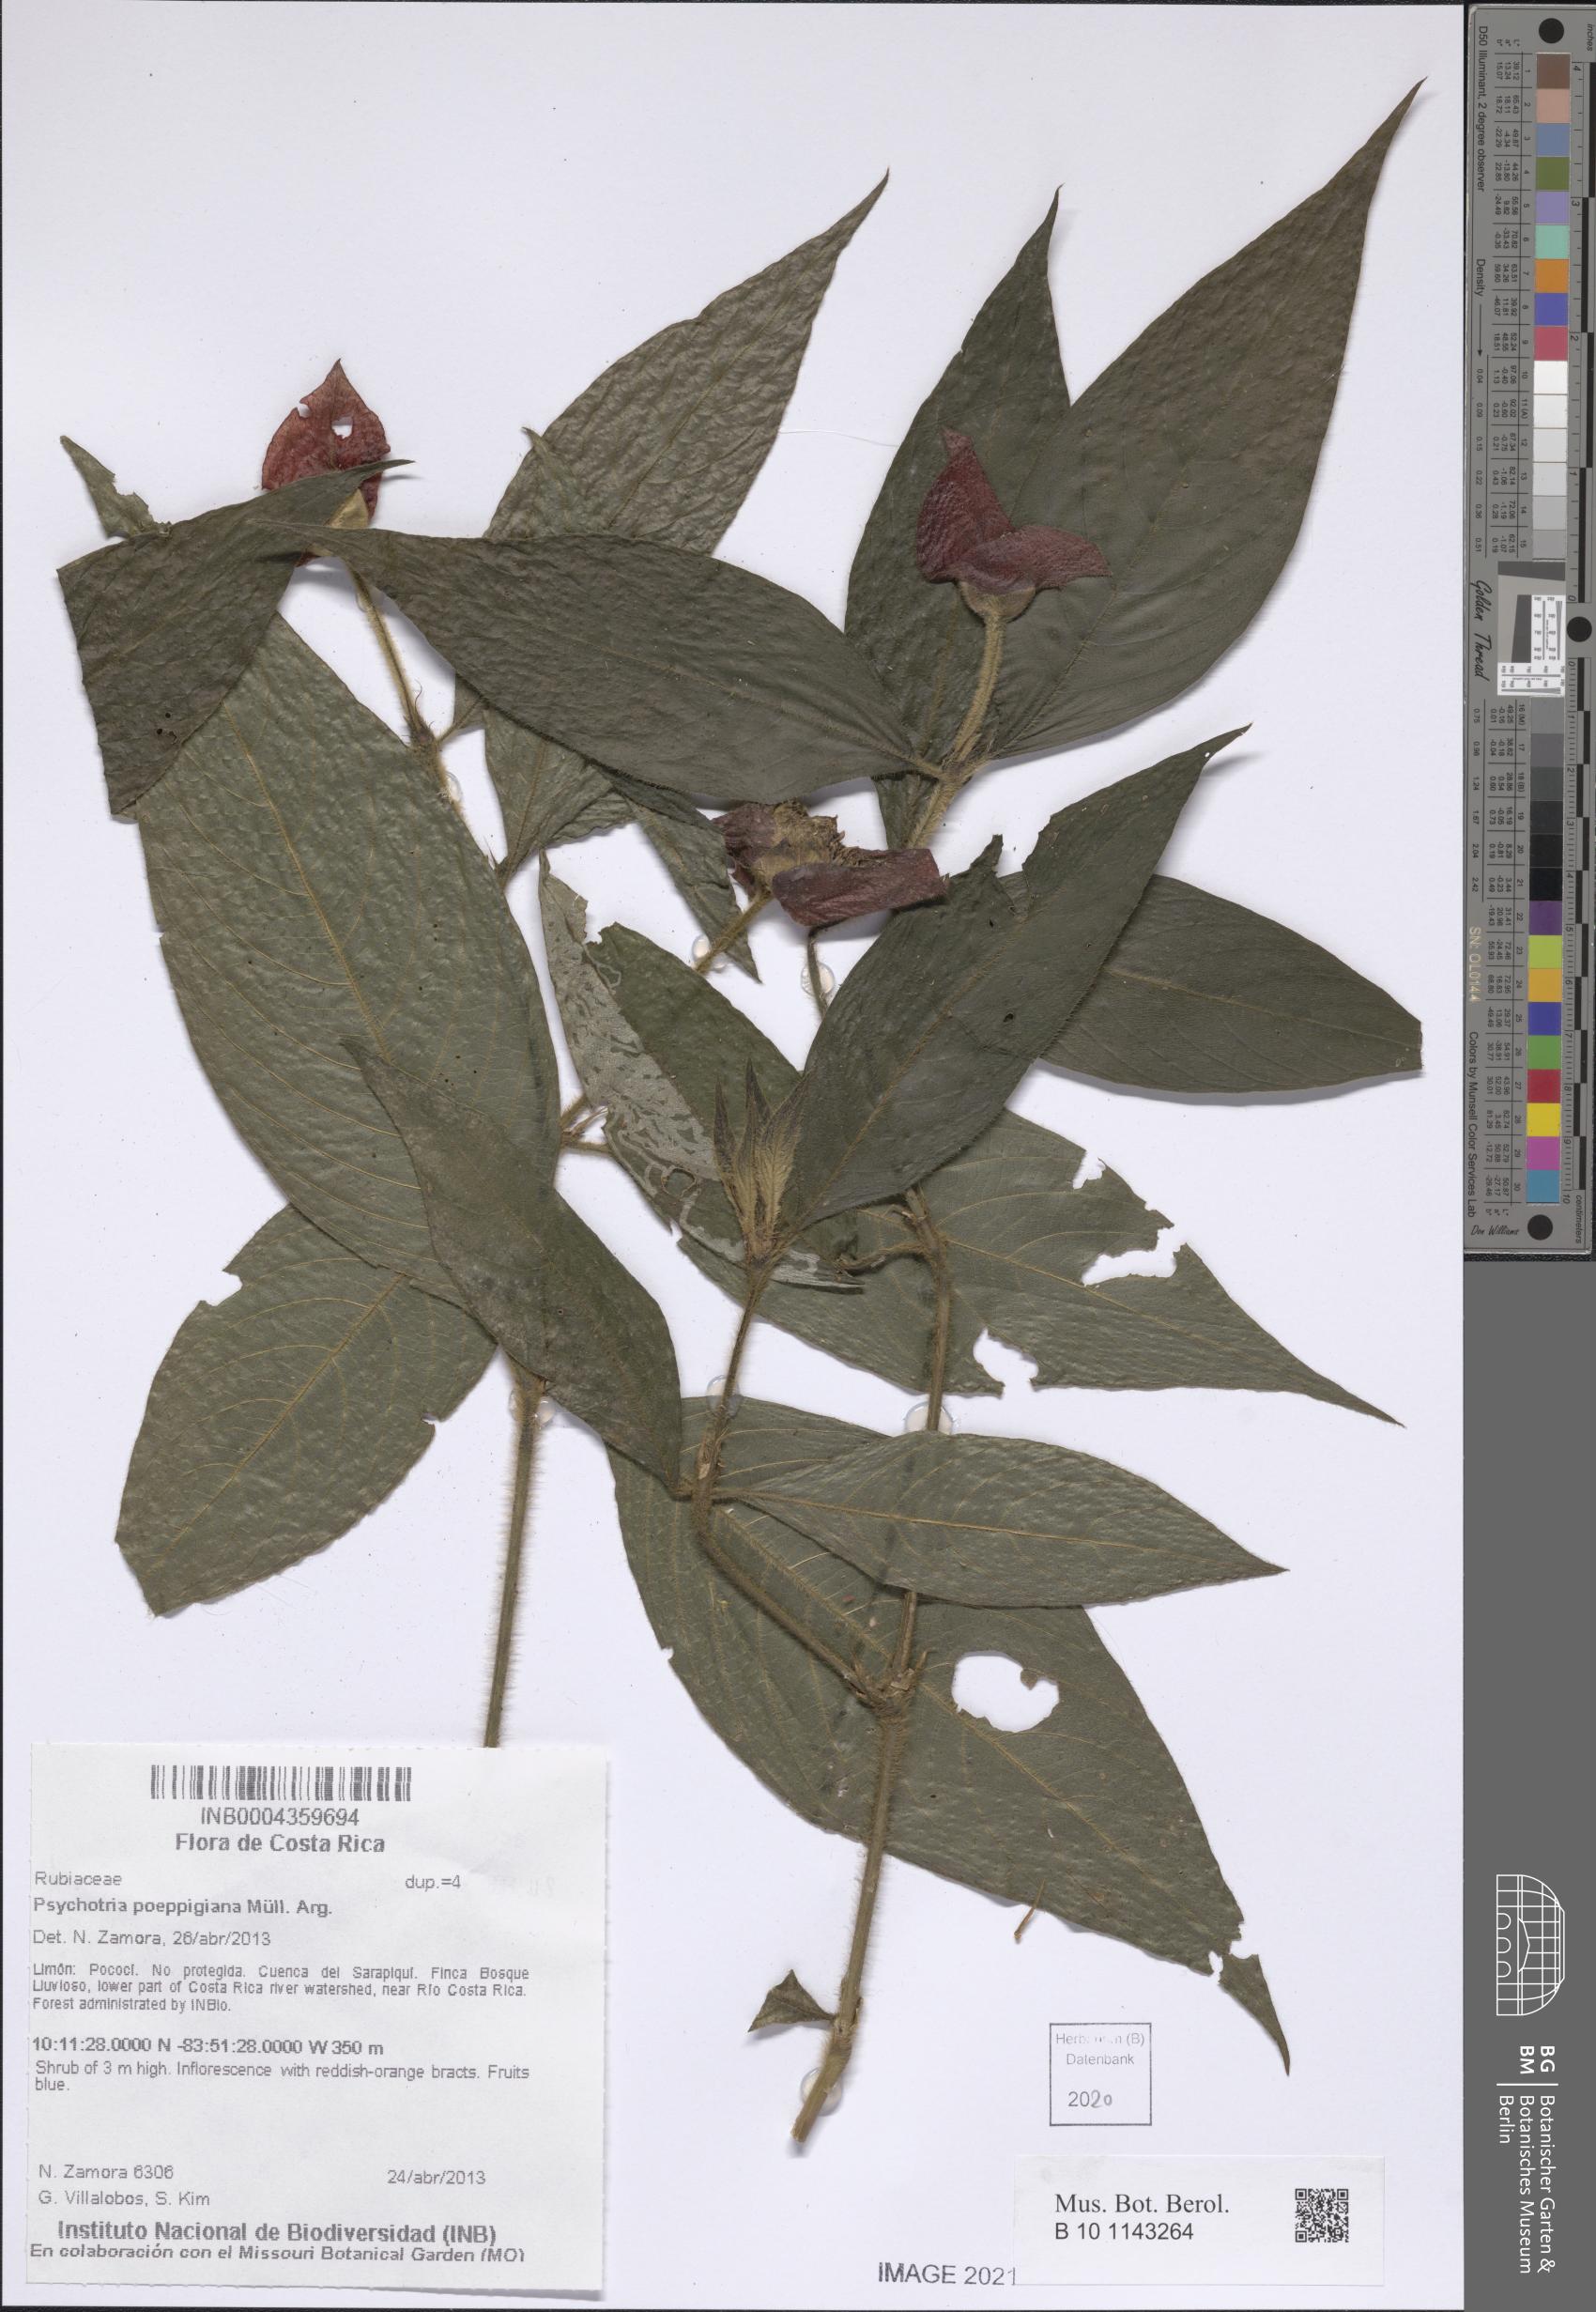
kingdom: Plantae
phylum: Tracheophyta
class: Magnoliopsida
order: Gentianales
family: Rubiaceae
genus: Palicourea
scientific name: Palicourea tomentosa
